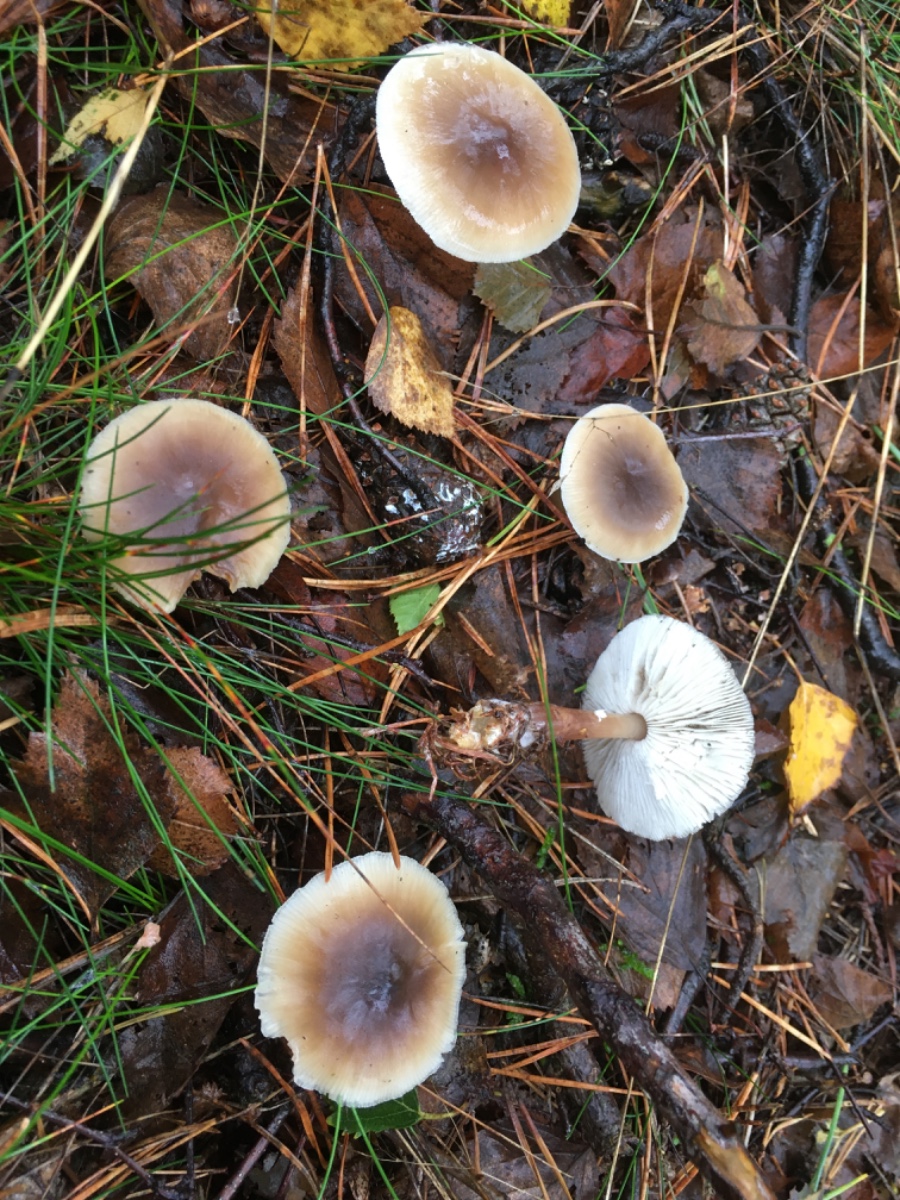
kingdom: Fungi
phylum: Basidiomycota
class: Agaricomycetes
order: Agaricales
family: Omphalotaceae
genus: Rhodocollybia
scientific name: Rhodocollybia butyracea
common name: keglestokket fladhat
